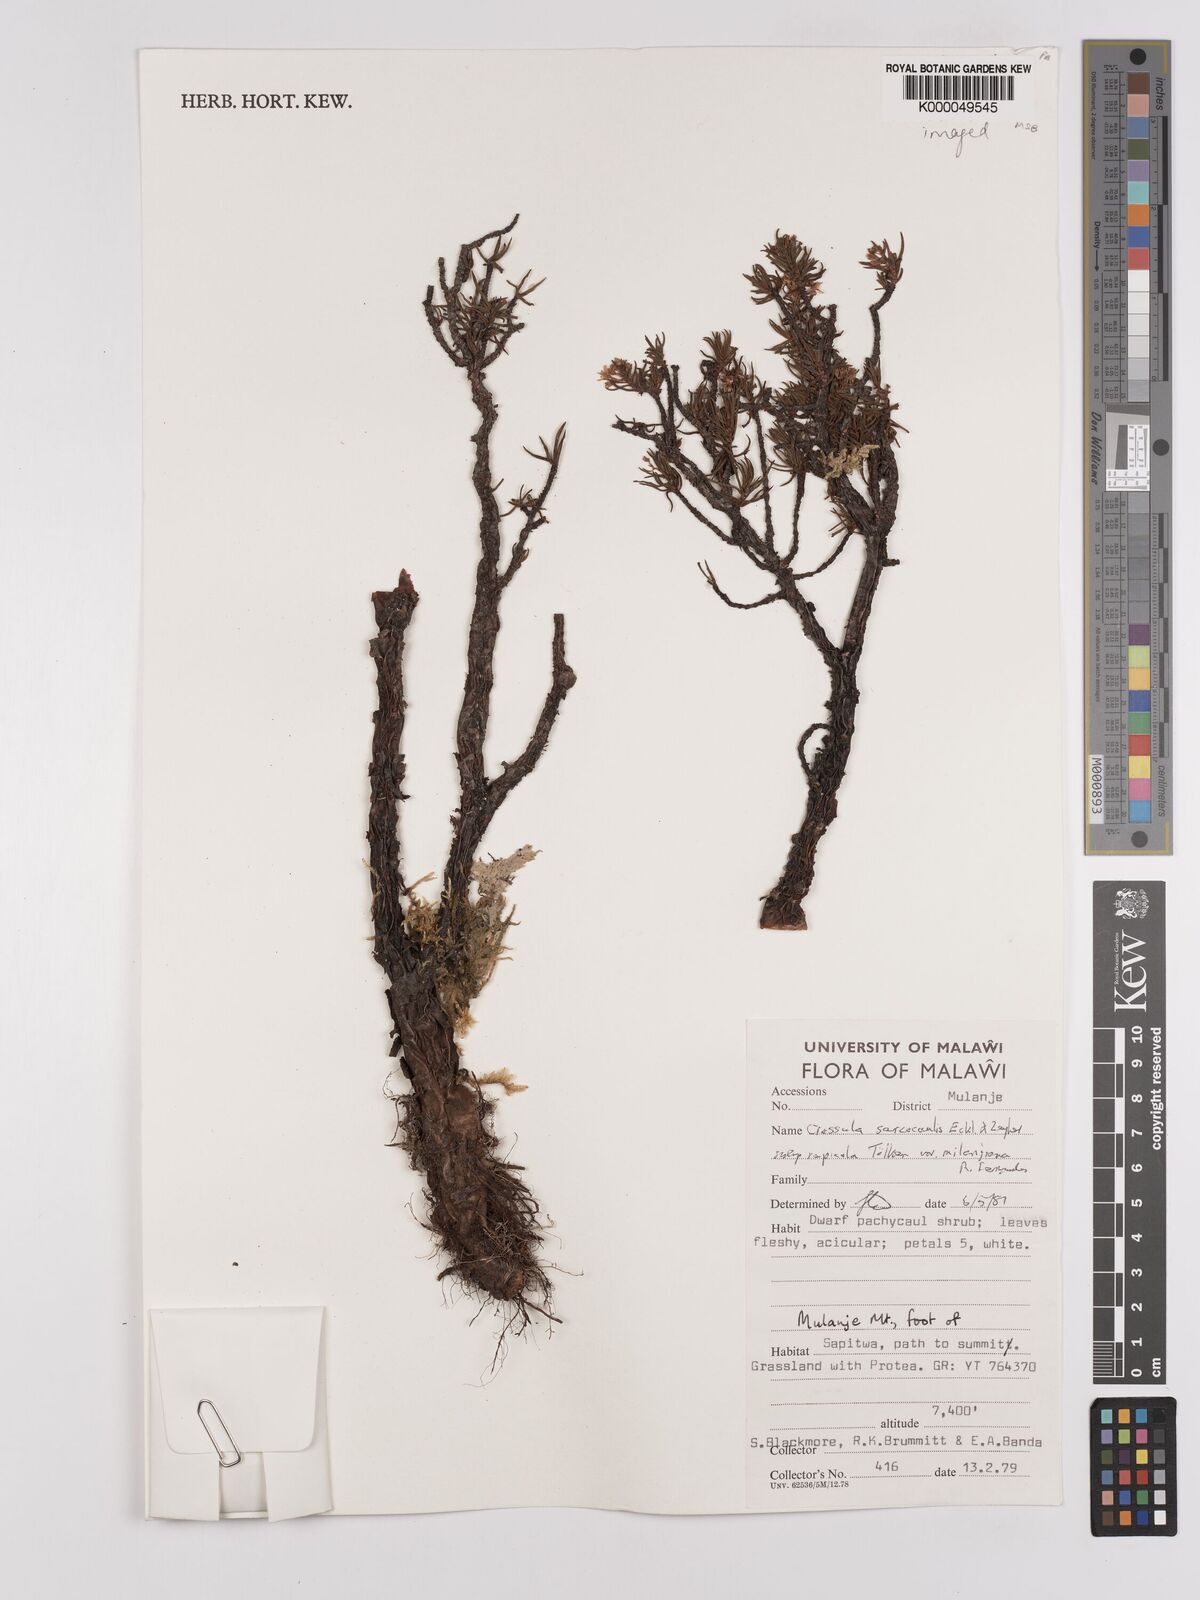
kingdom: Plantae
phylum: Tracheophyta
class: Magnoliopsida
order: Saxifragales
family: Crassulaceae
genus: Crassula
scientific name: Crassula sarcocaulis
